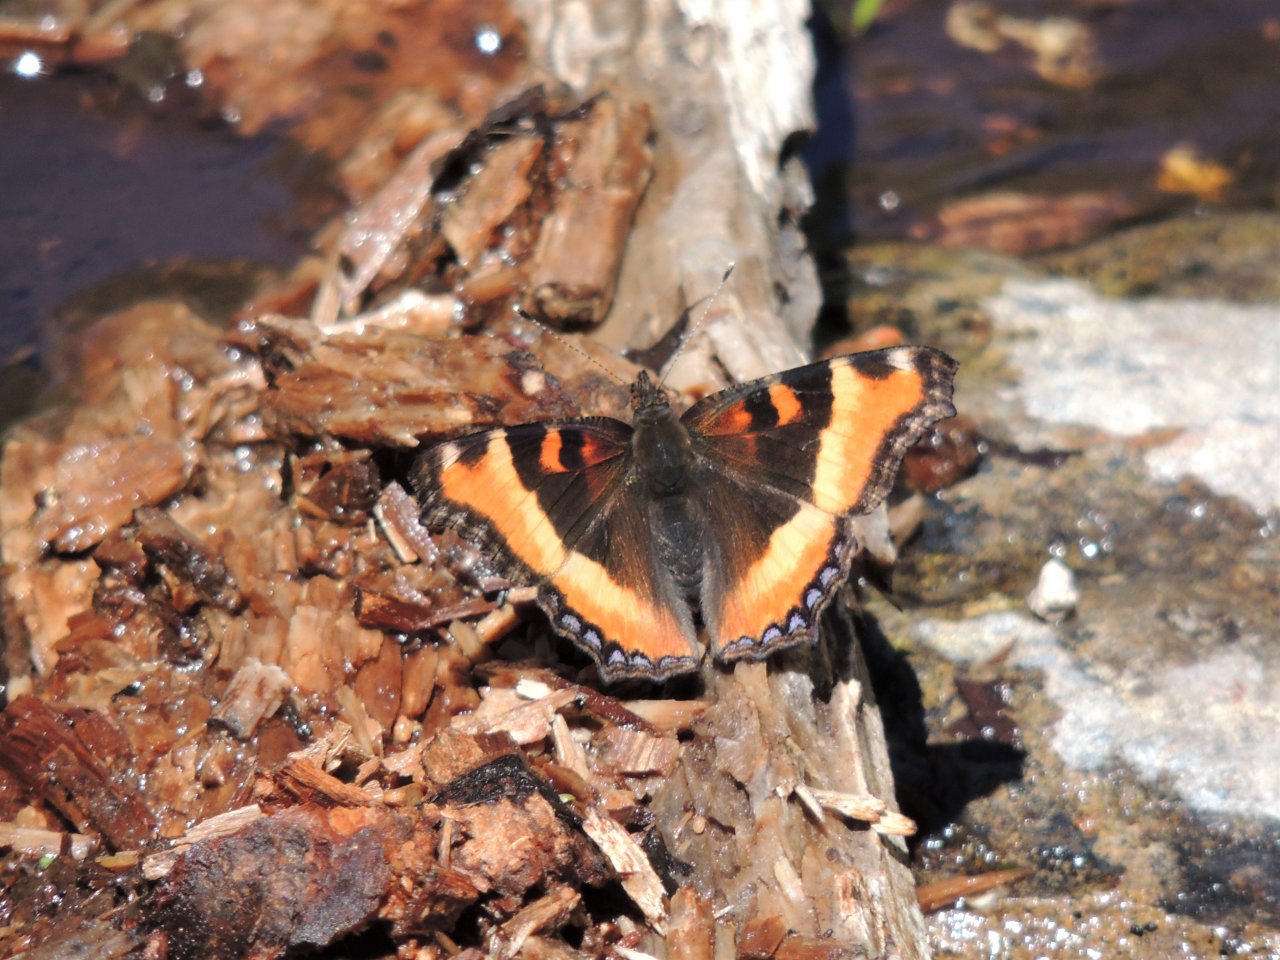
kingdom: Animalia
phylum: Arthropoda
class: Insecta
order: Lepidoptera
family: Nymphalidae
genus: Aglais
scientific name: Aglais milberti
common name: Milbert's Tortoiseshell
